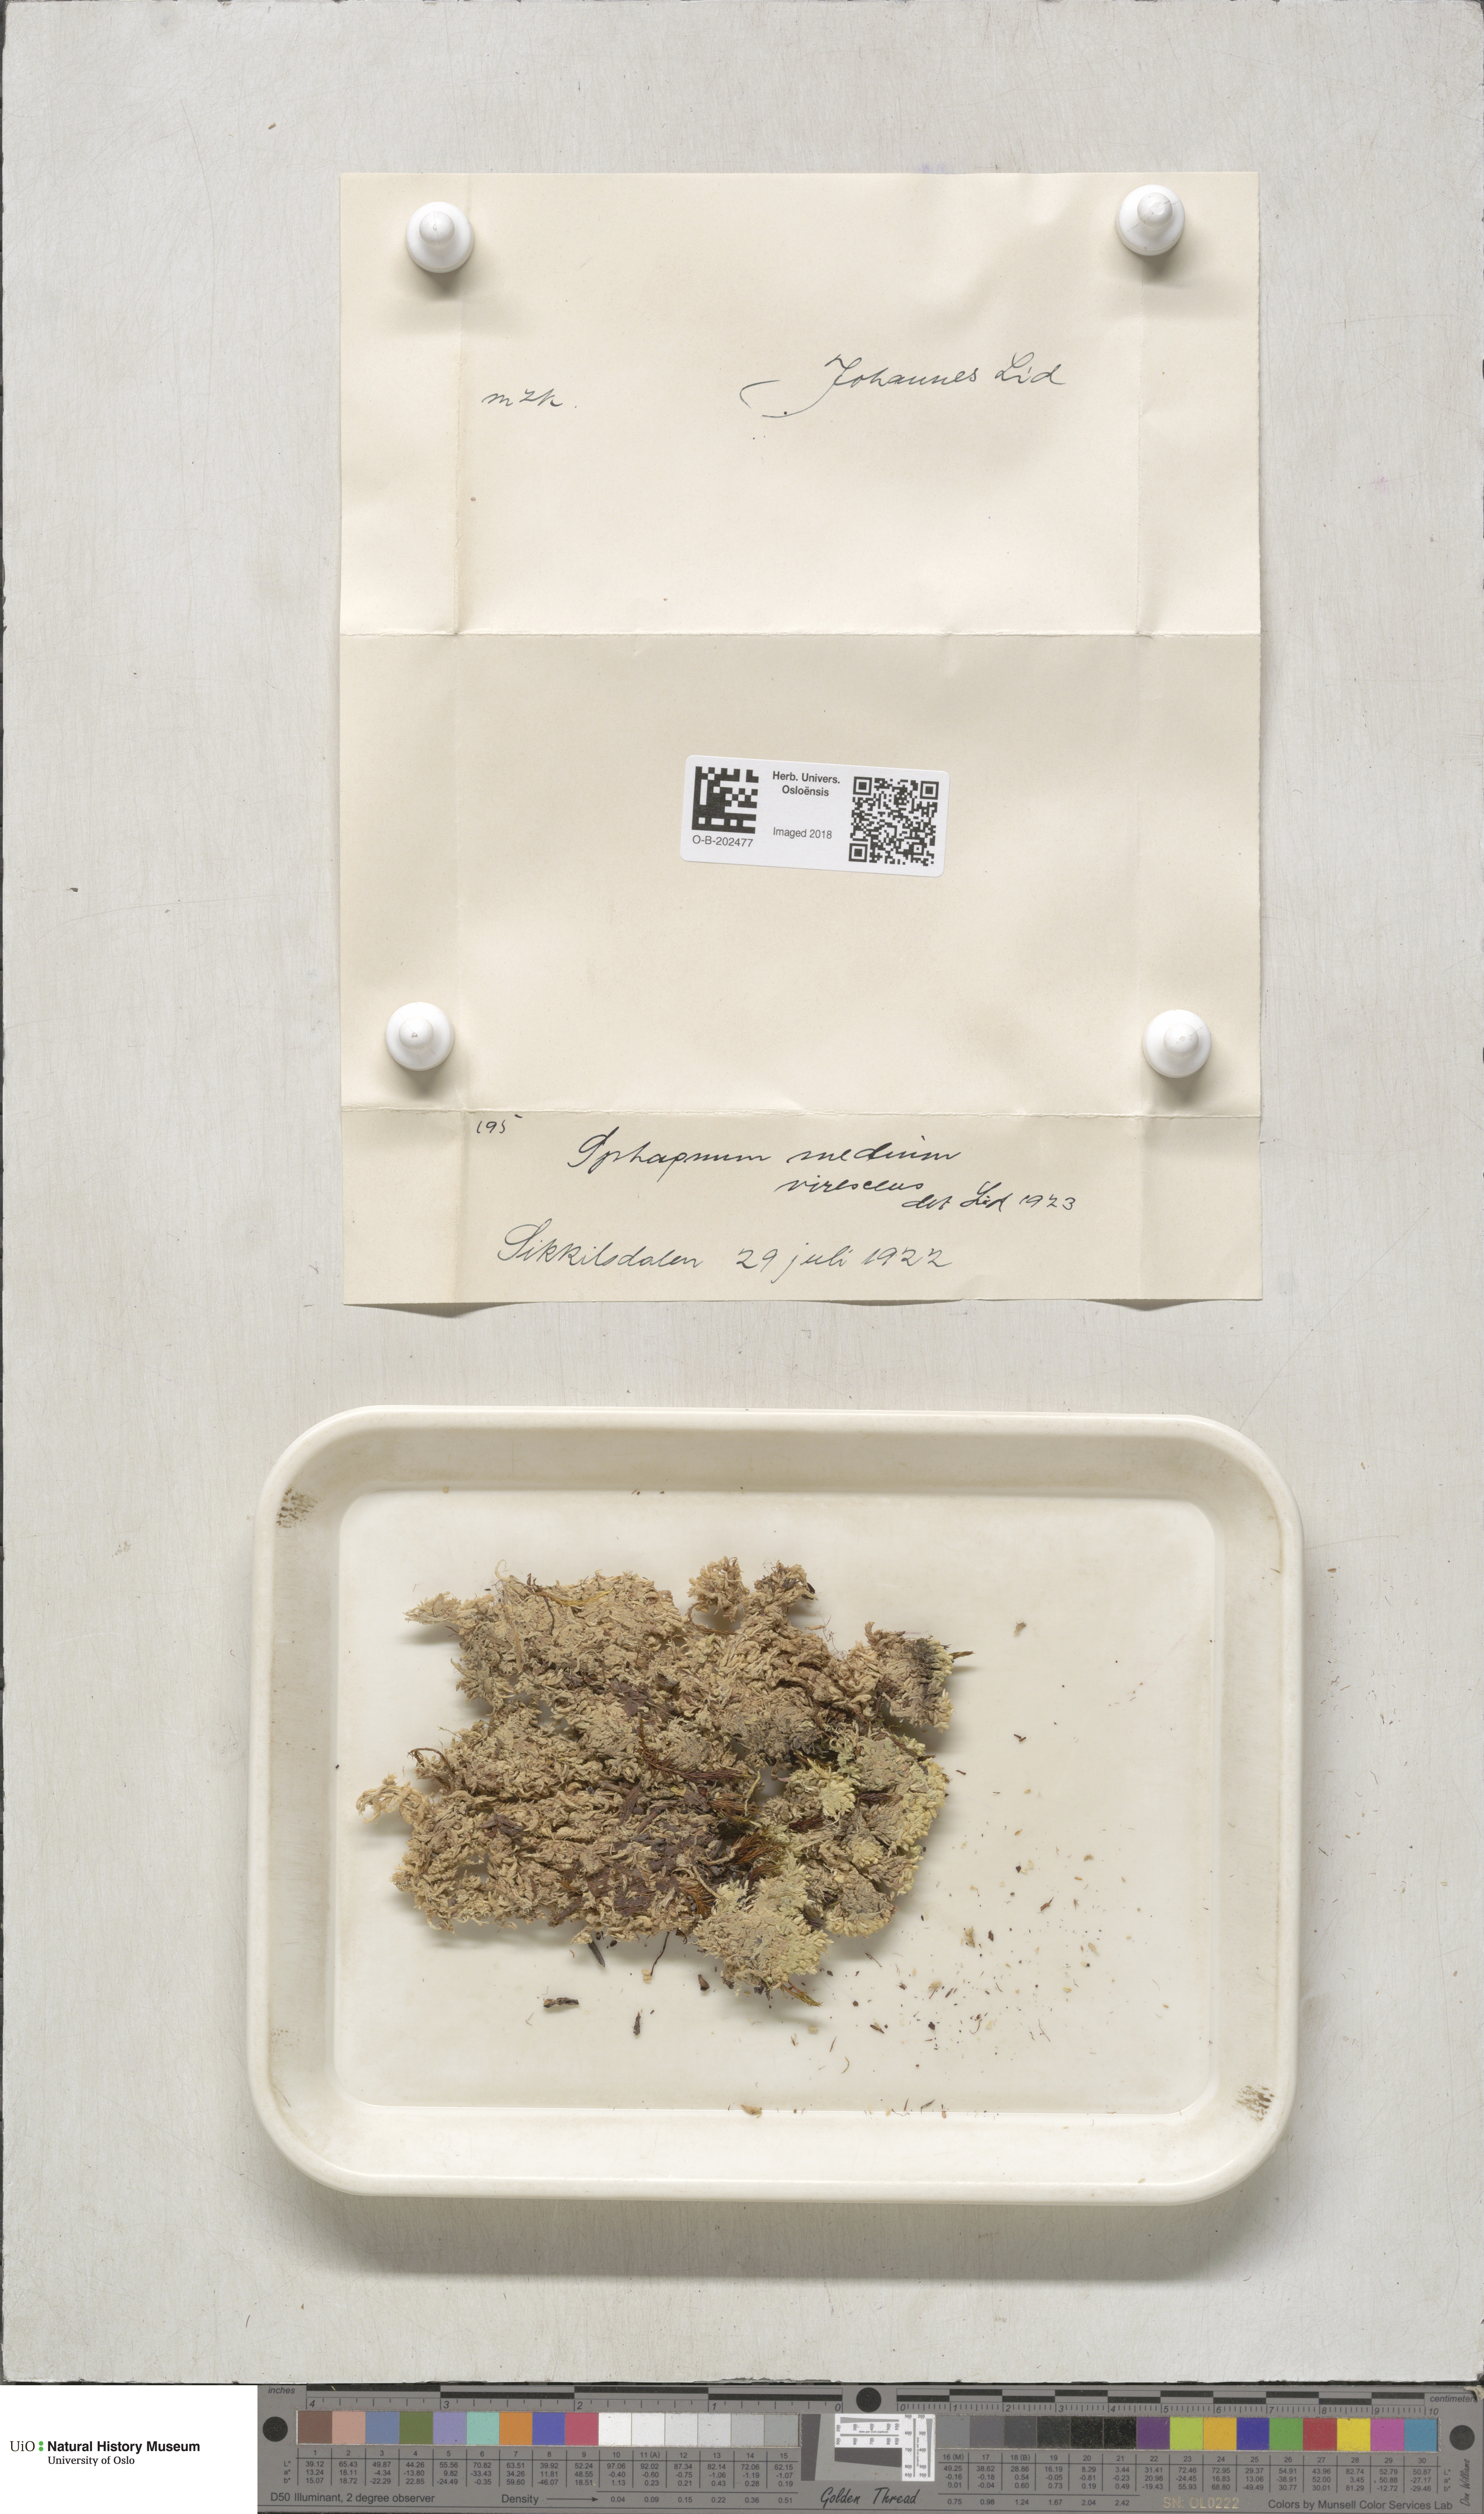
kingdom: Plantae
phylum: Bryophyta
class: Sphagnopsida
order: Sphagnales
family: Sphagnaceae
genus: Sphagnum
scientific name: Sphagnum magellanicum
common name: Magellan's peat moss
